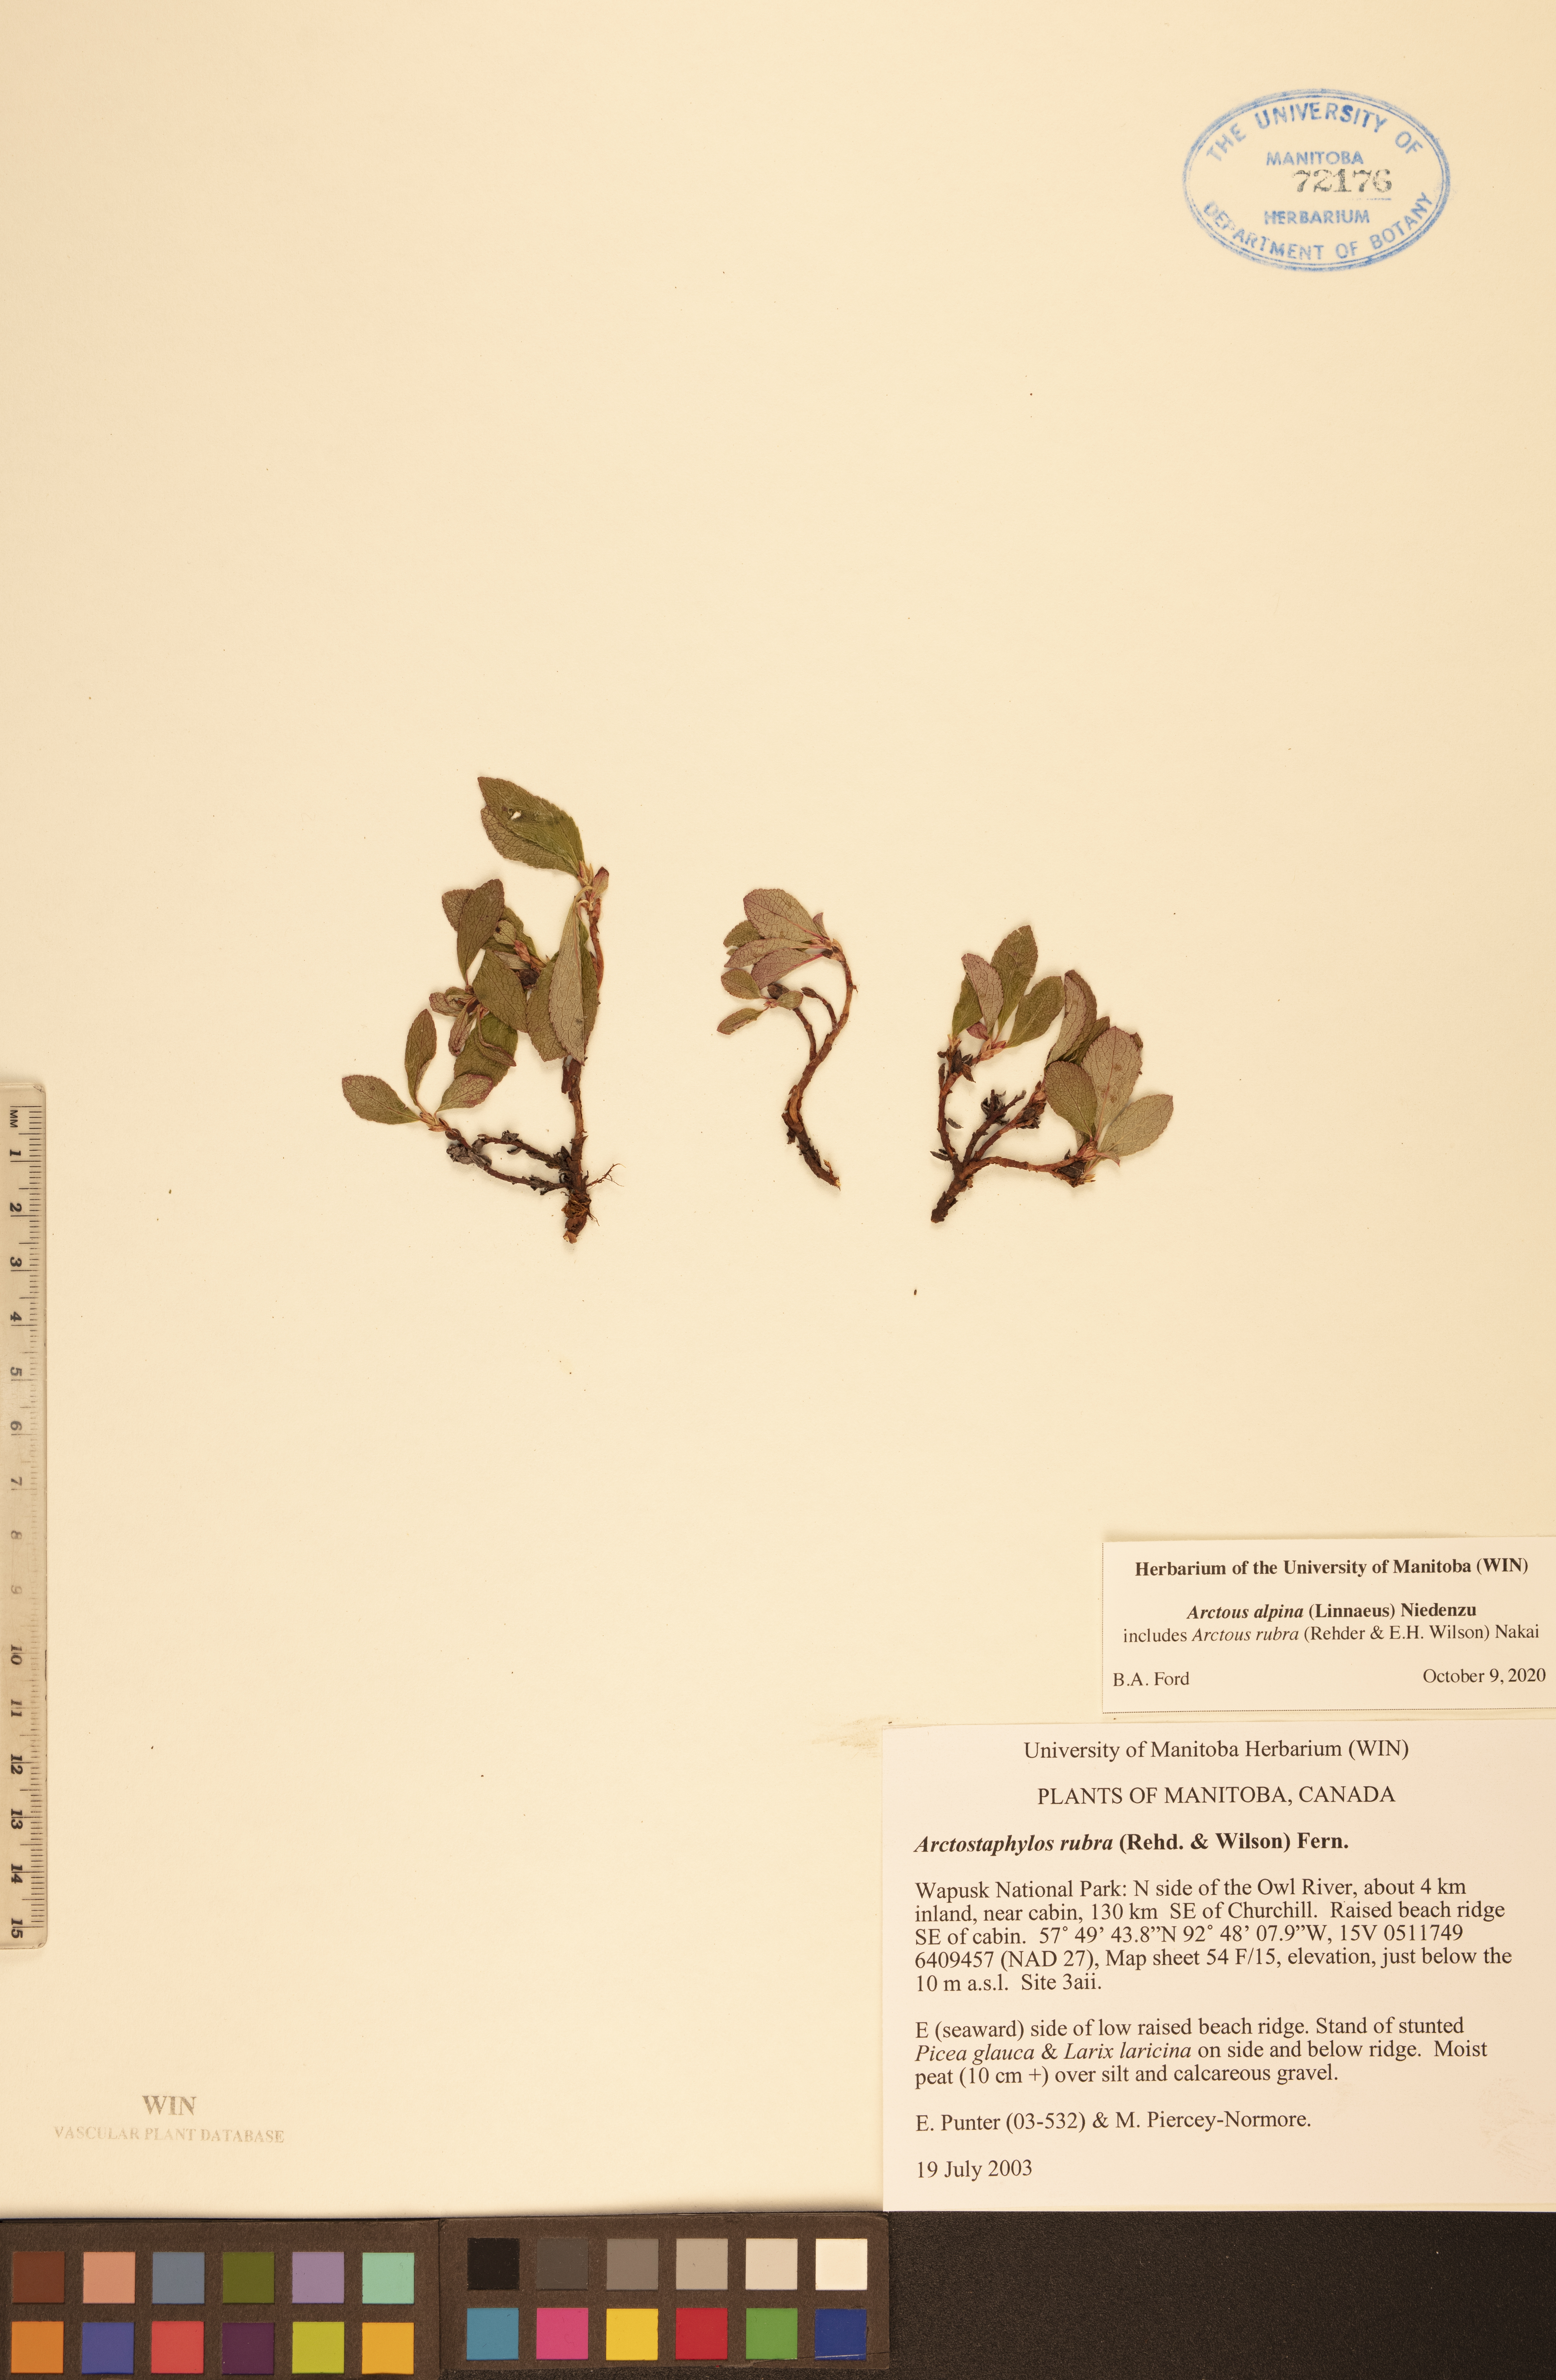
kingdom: Plantae
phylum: Tracheophyta
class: Magnoliopsida
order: Ericales
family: Ericaceae
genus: Arctostaphylos
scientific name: Arctostaphylos alpinus
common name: Alpine bearberry
